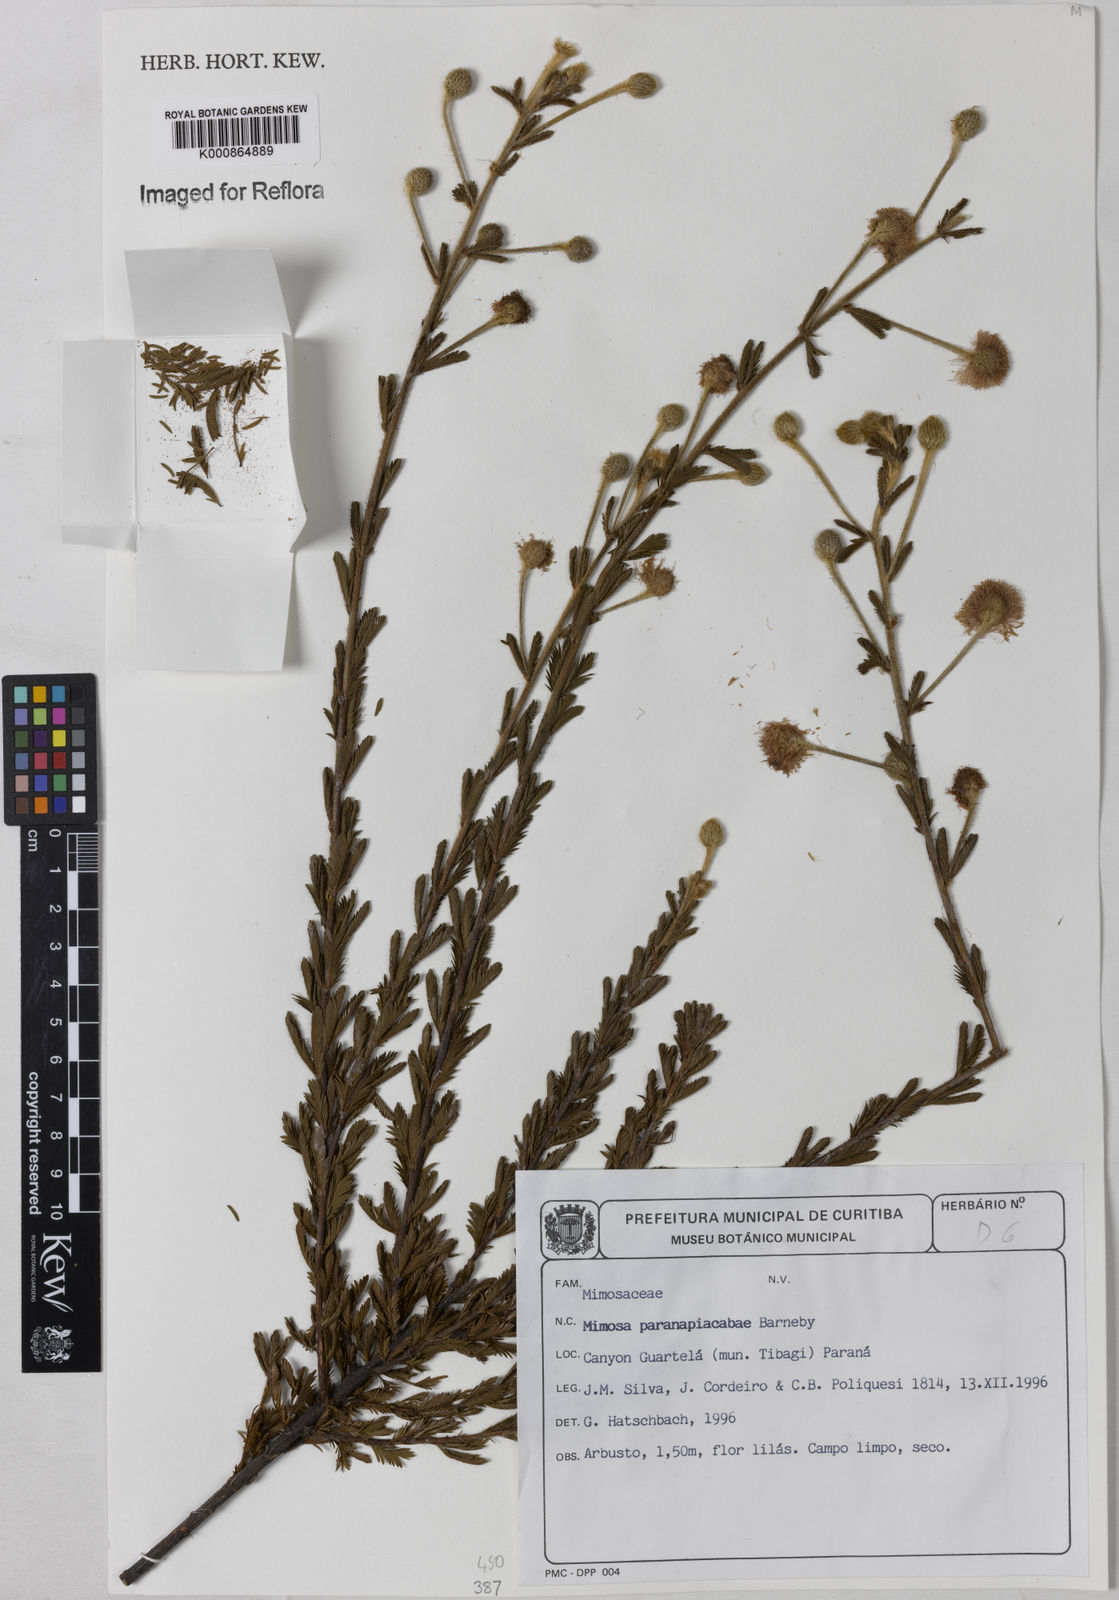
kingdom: Plantae
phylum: Tracheophyta
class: Magnoliopsida
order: Fabales
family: Fabaceae
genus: Mimosa
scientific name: Mimosa paranapiacabae
